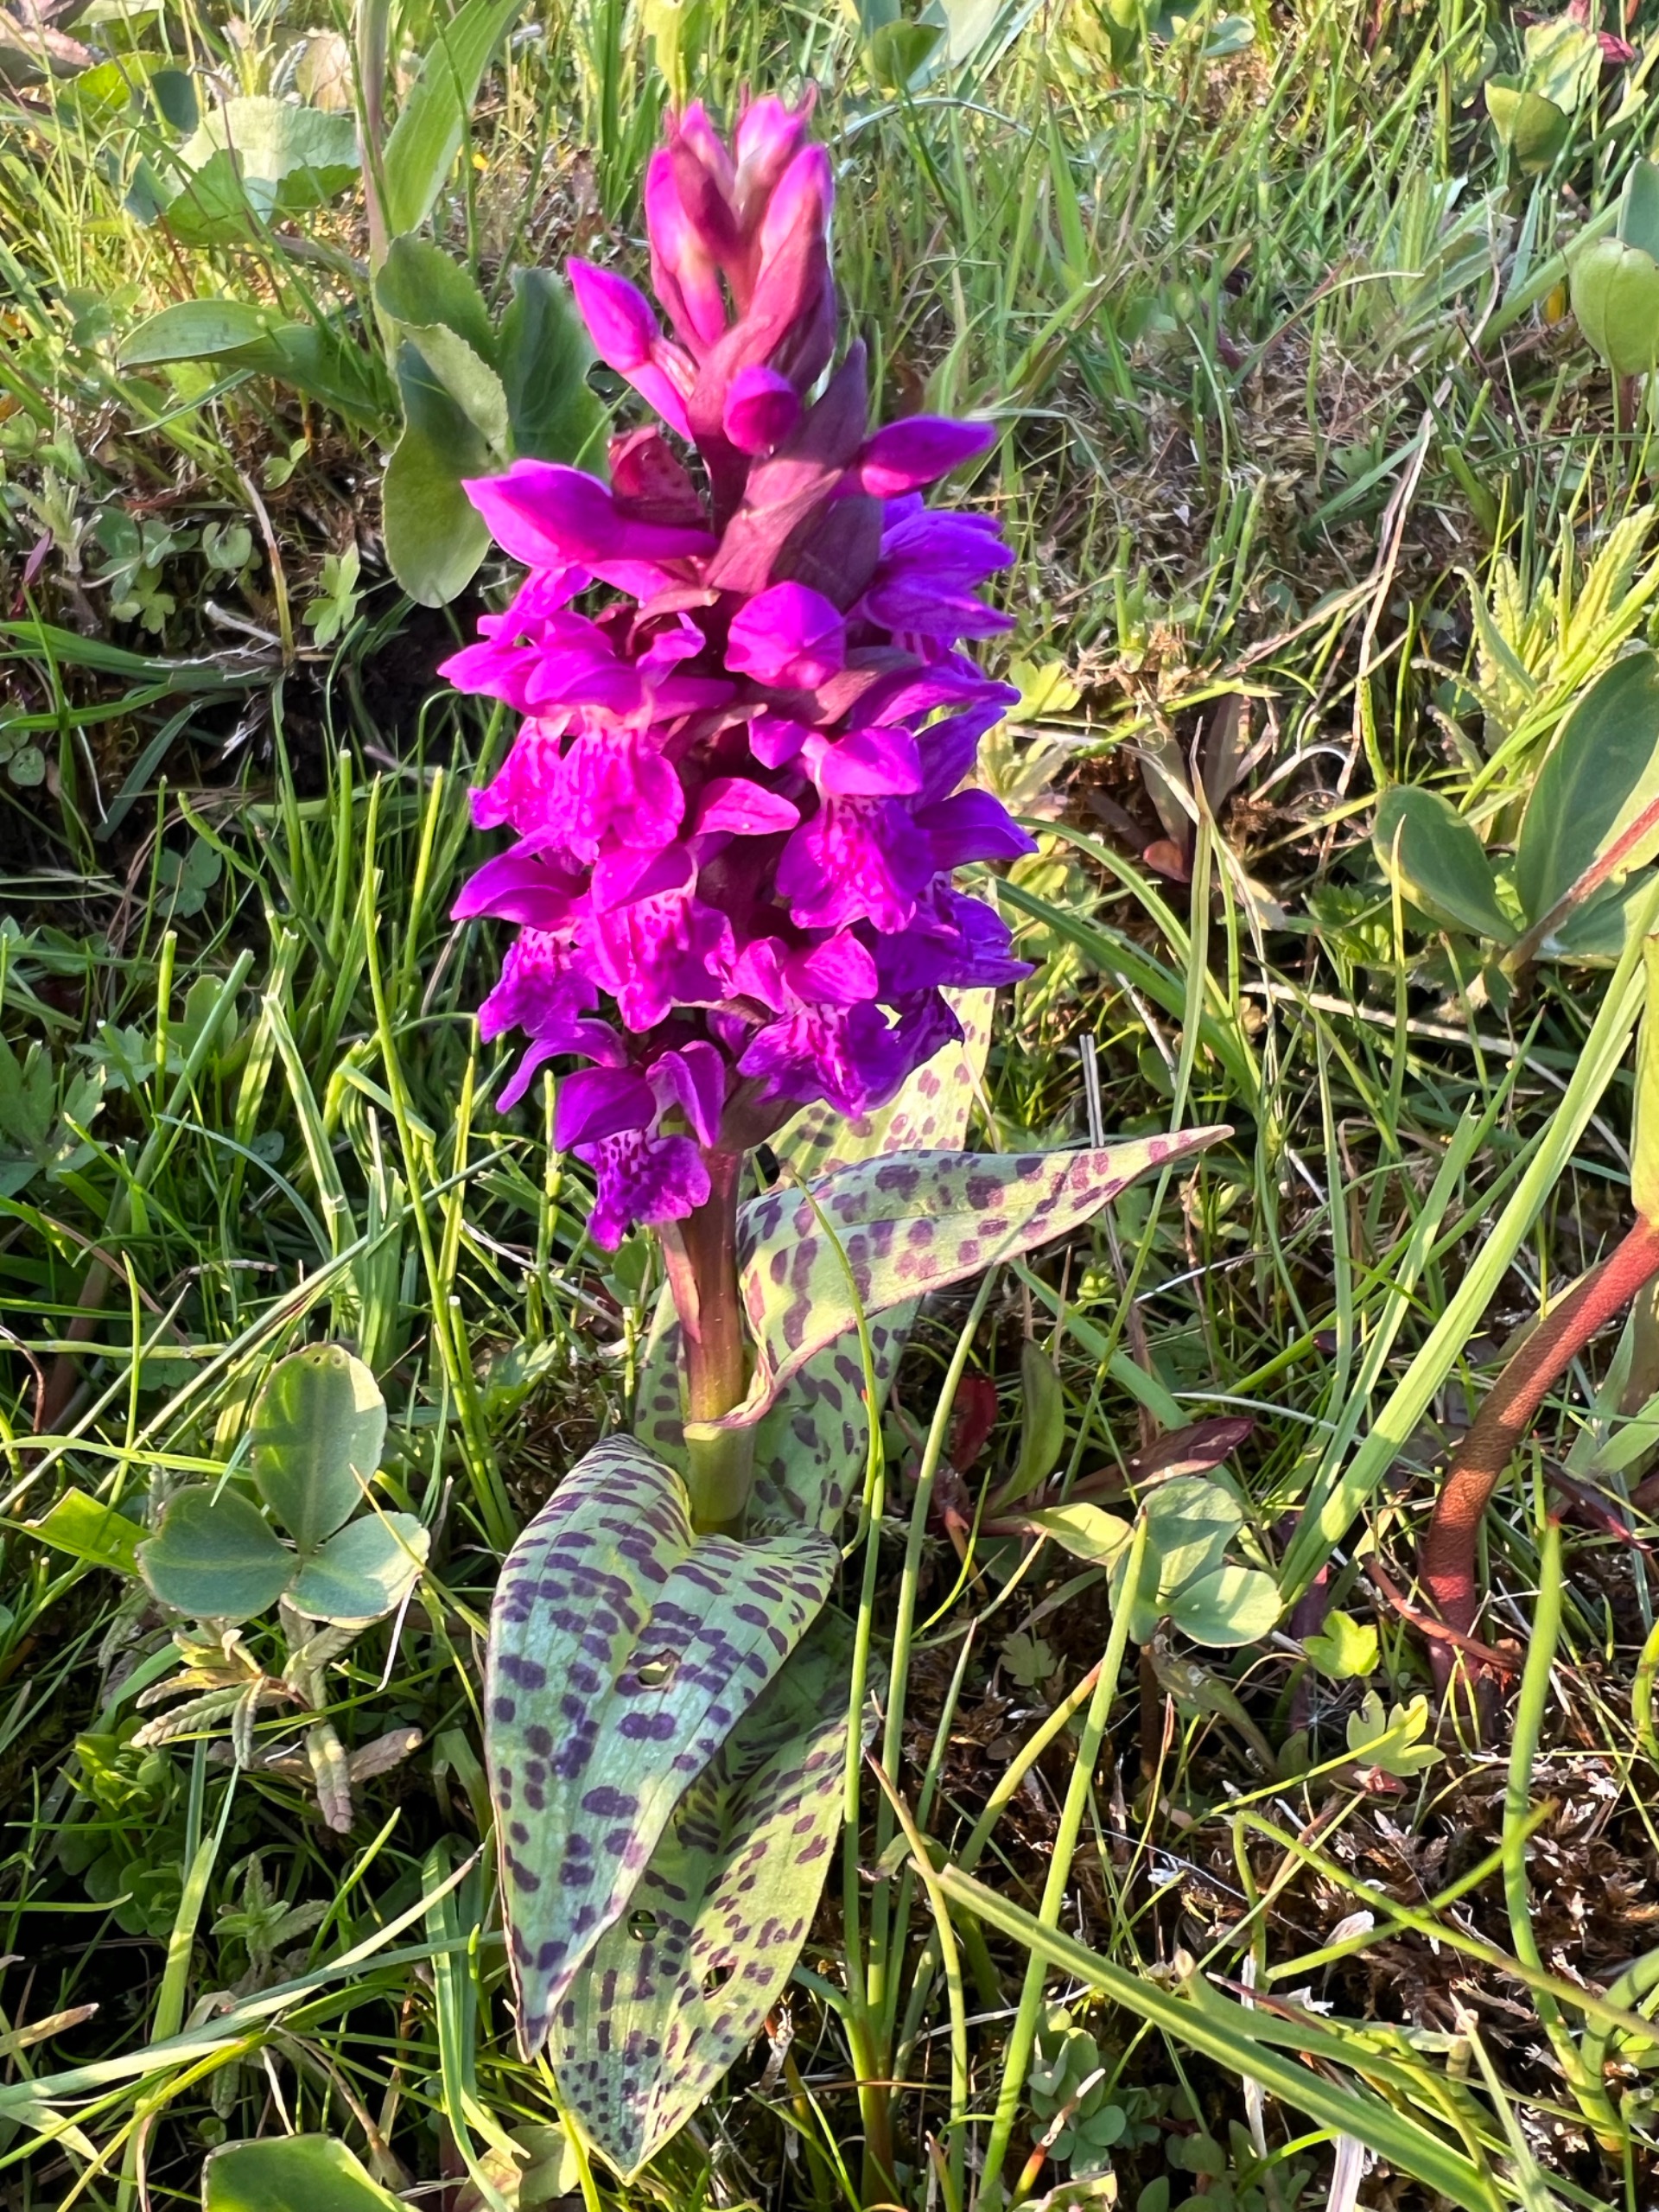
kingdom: Plantae
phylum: Tracheophyta
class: Liliopsida
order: Asparagales
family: Orchidaceae
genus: Dactylorhiza
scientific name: Dactylorhiza majalis
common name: Maj-gøgeurt
